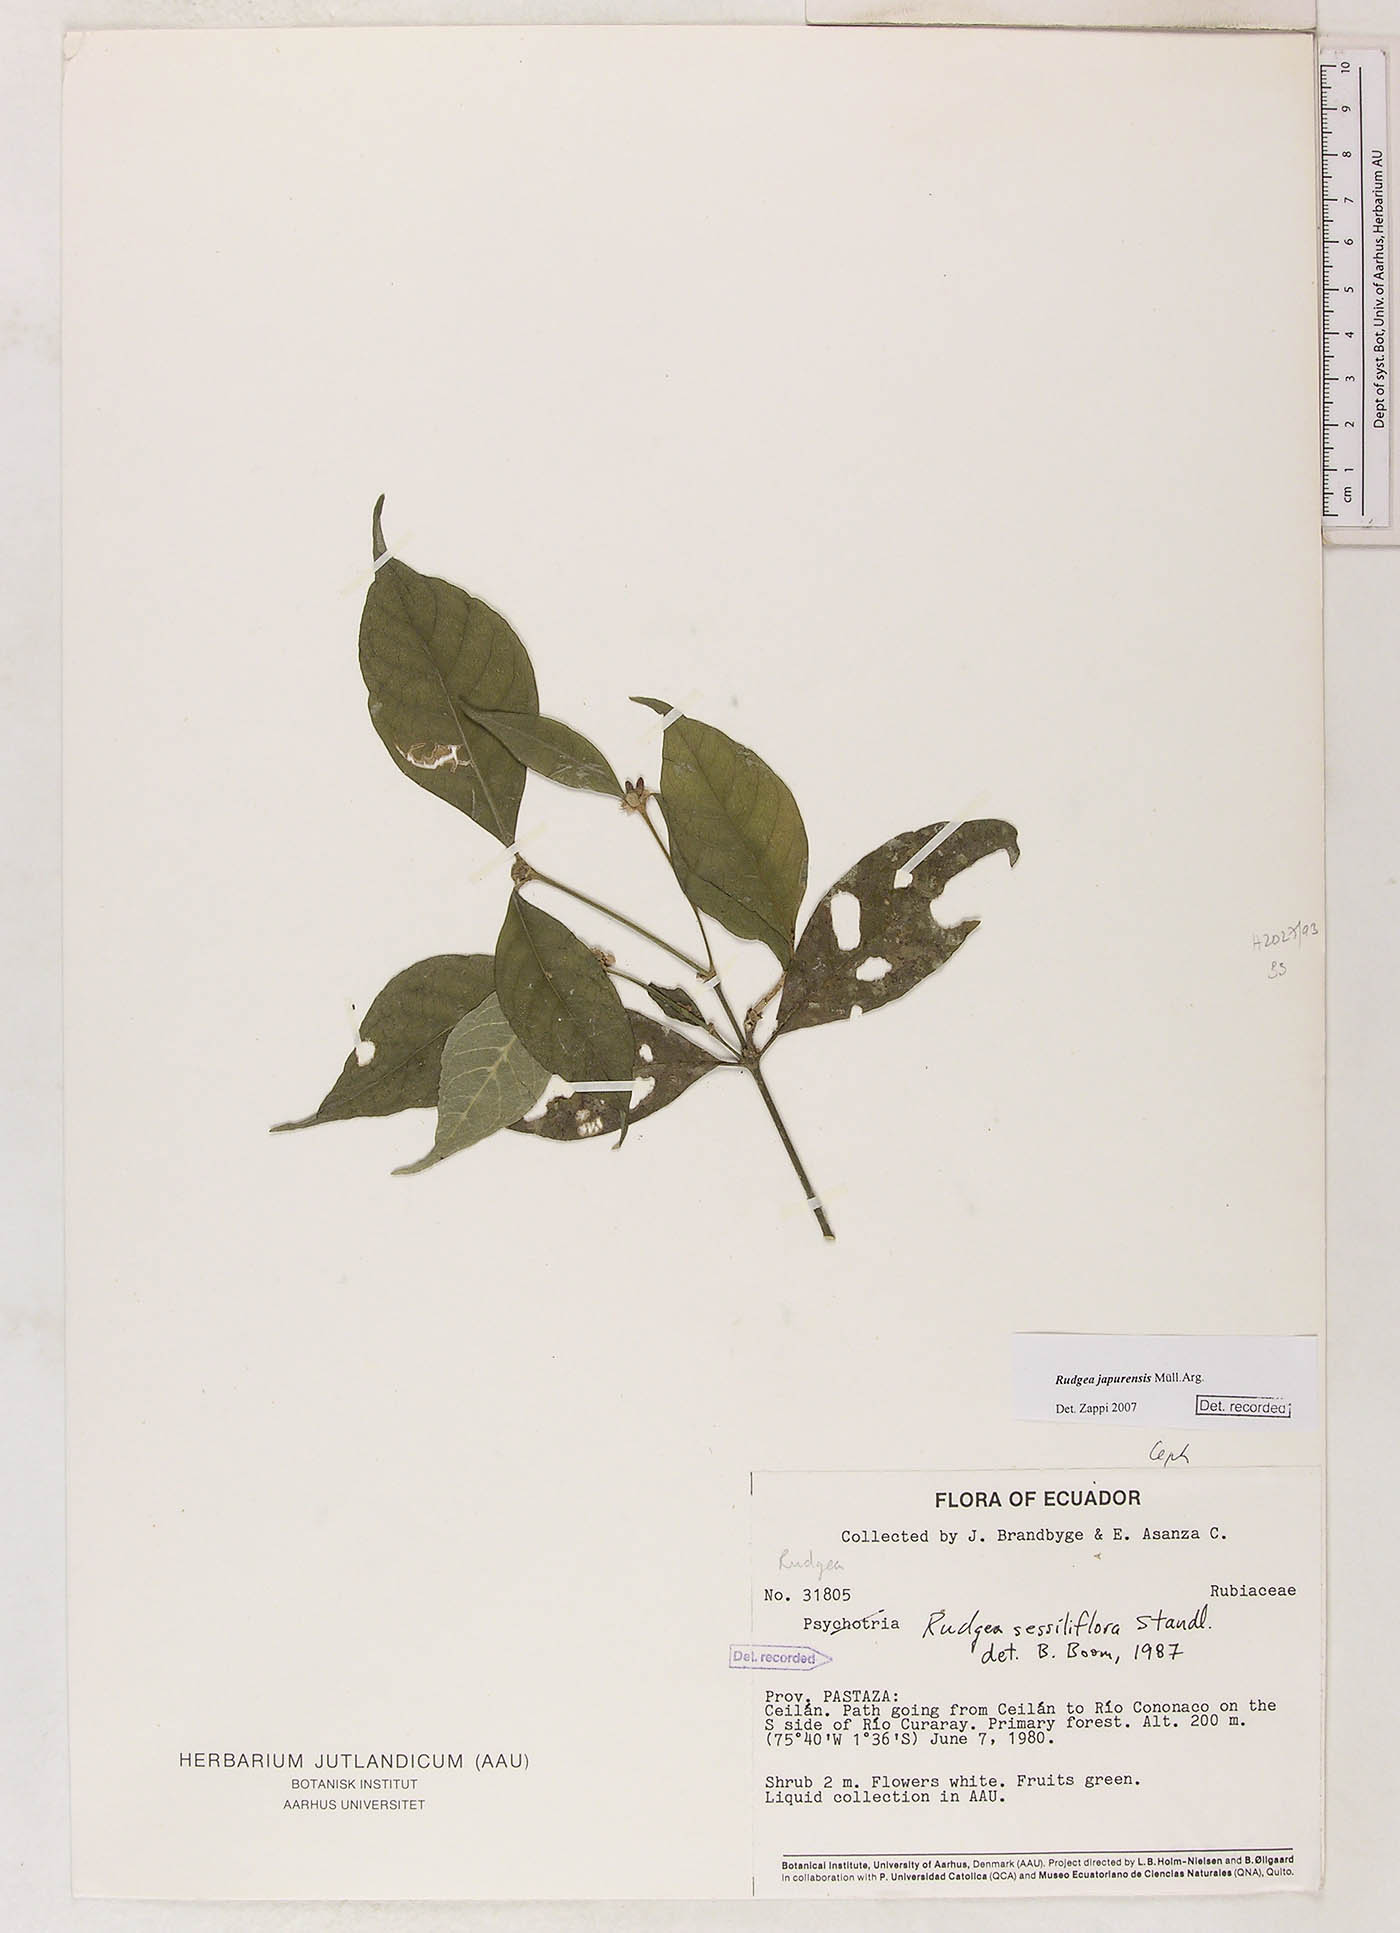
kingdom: Plantae
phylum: Tracheophyta
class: Magnoliopsida
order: Gentianales
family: Rubiaceae
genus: Rudgea
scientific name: Rudgea panurensis
